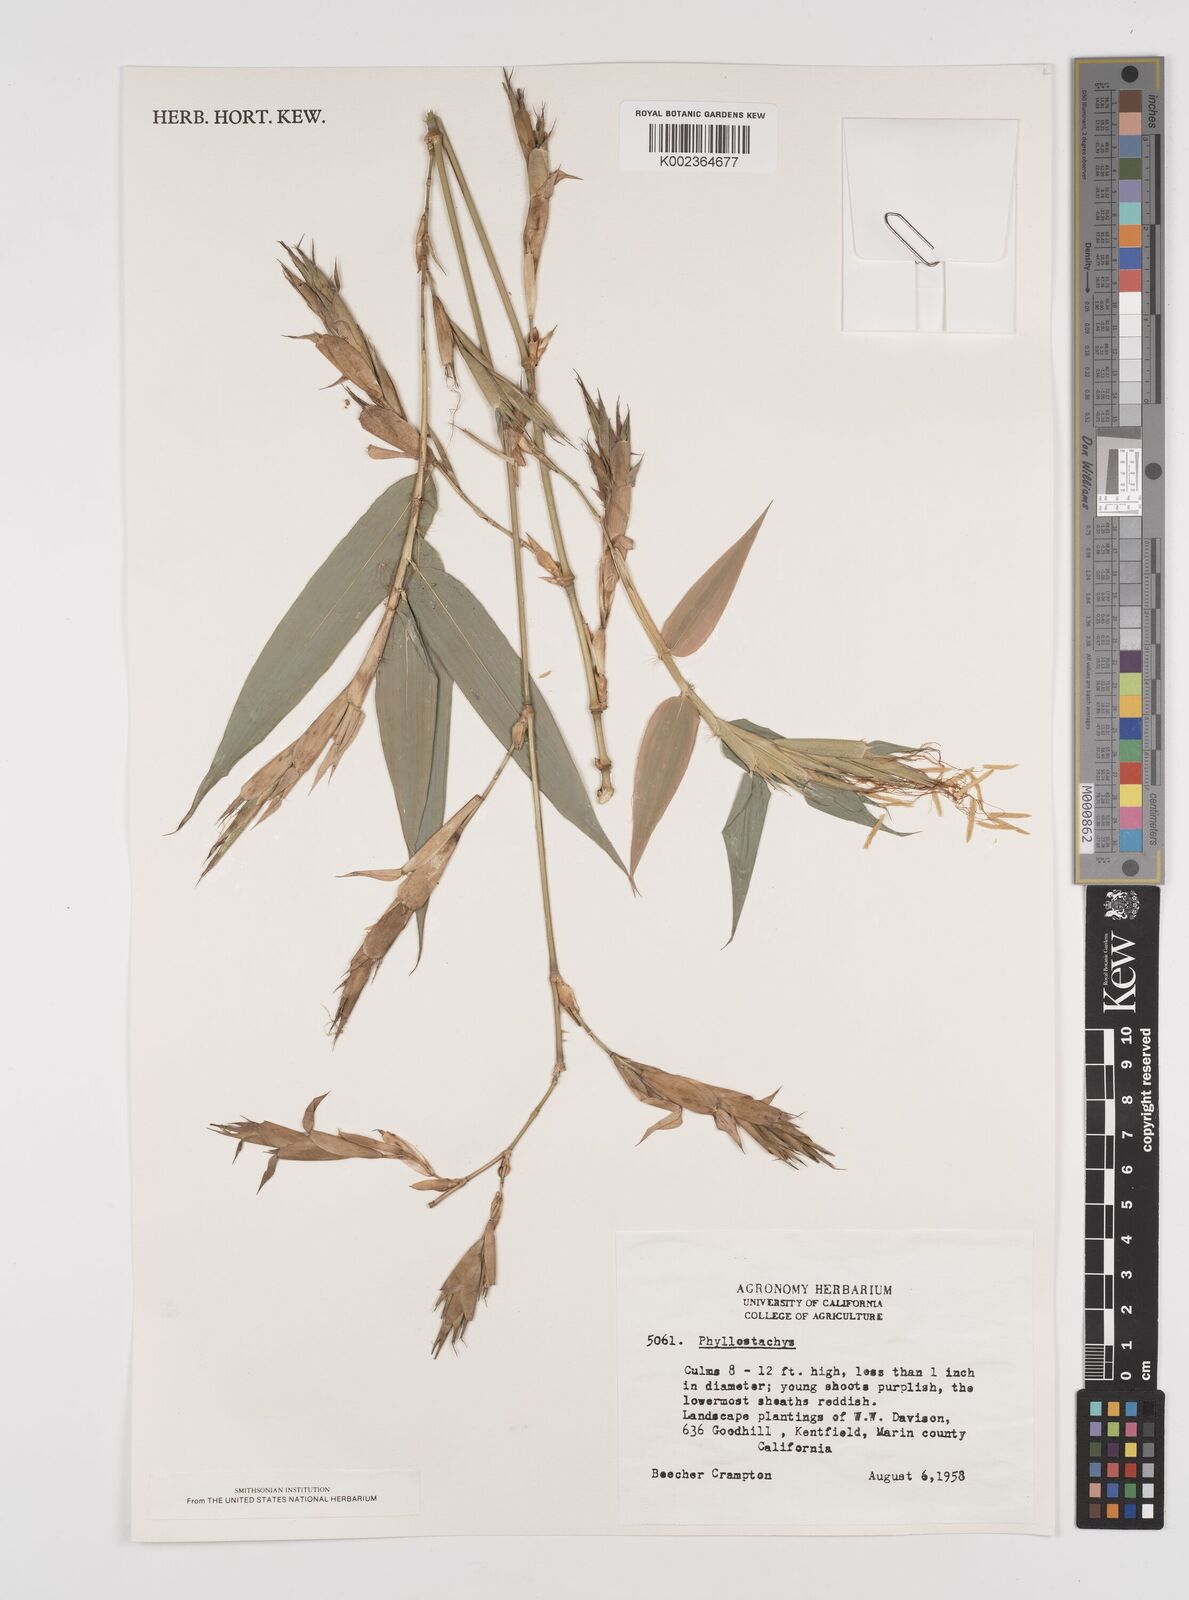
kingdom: Plantae
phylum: Tracheophyta
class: Liliopsida
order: Poales
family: Poaceae
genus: Phyllostachys
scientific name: Phyllostachys
